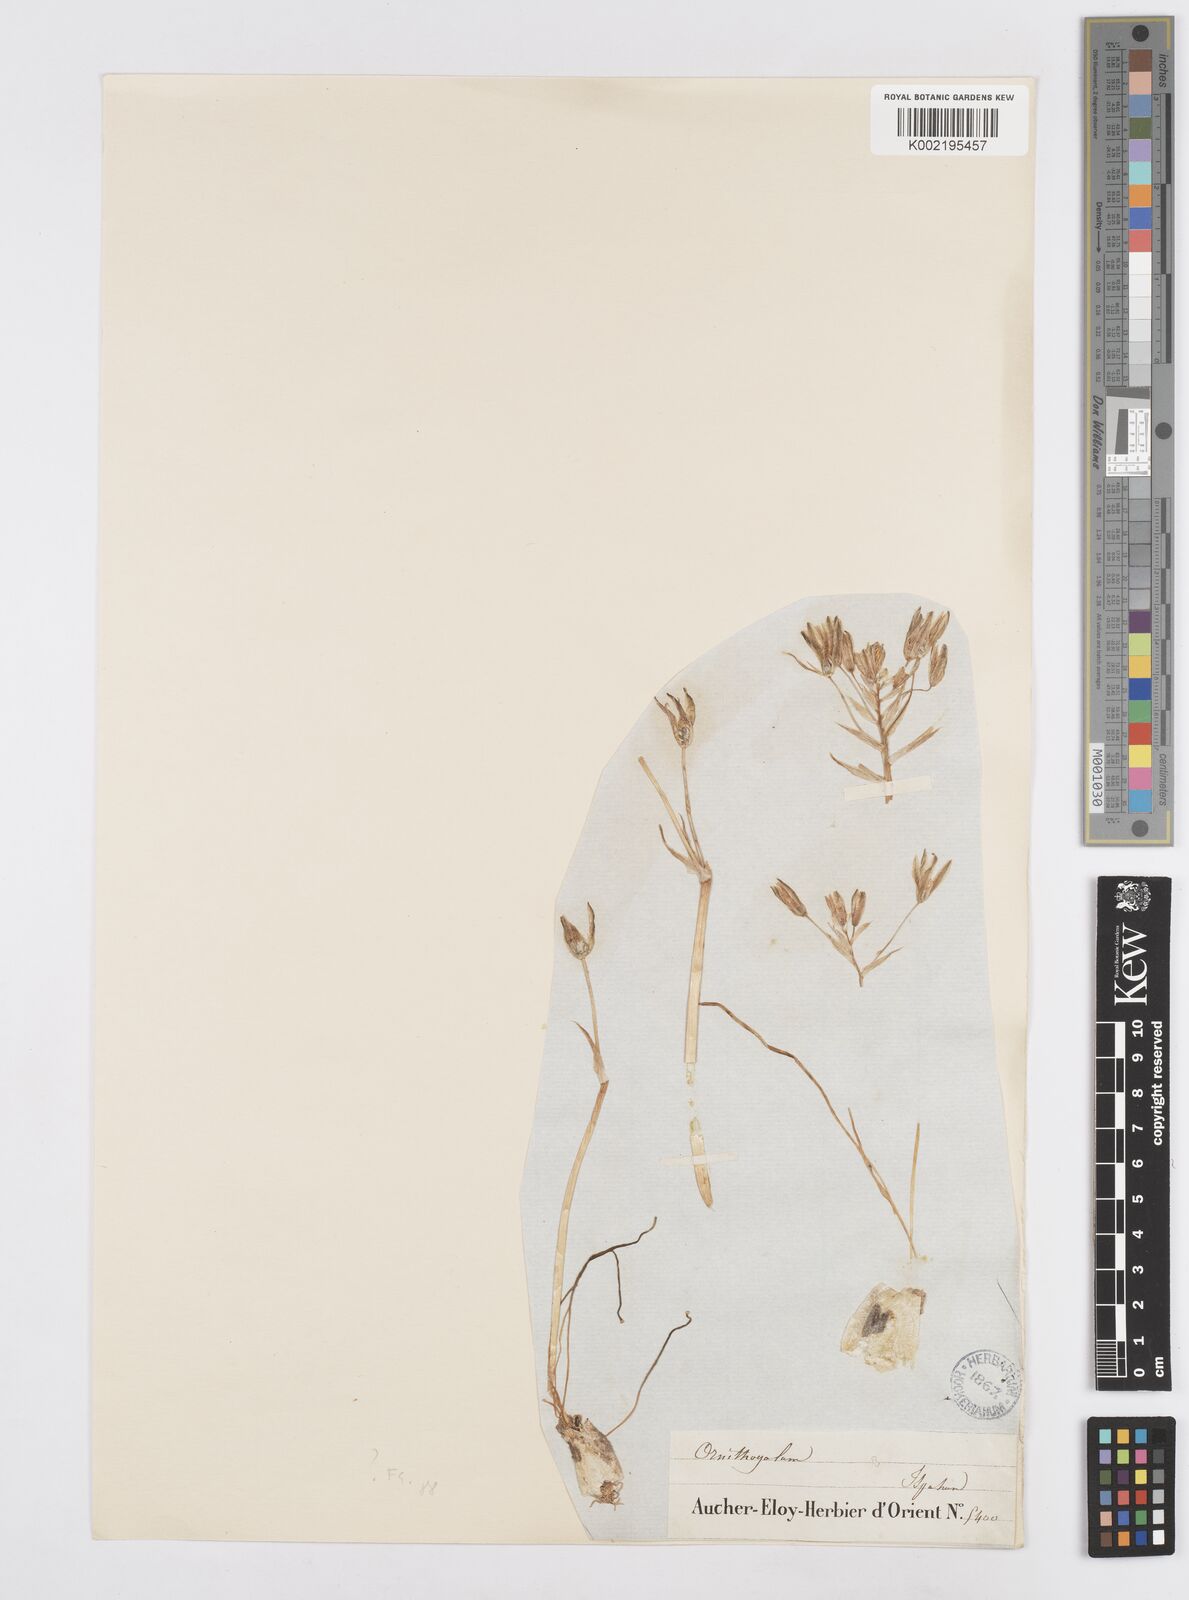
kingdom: Plantae
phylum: Tracheophyta
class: Liliopsida
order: Asparagales
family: Asparagaceae
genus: Ornithogalum
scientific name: Ornithogalum
